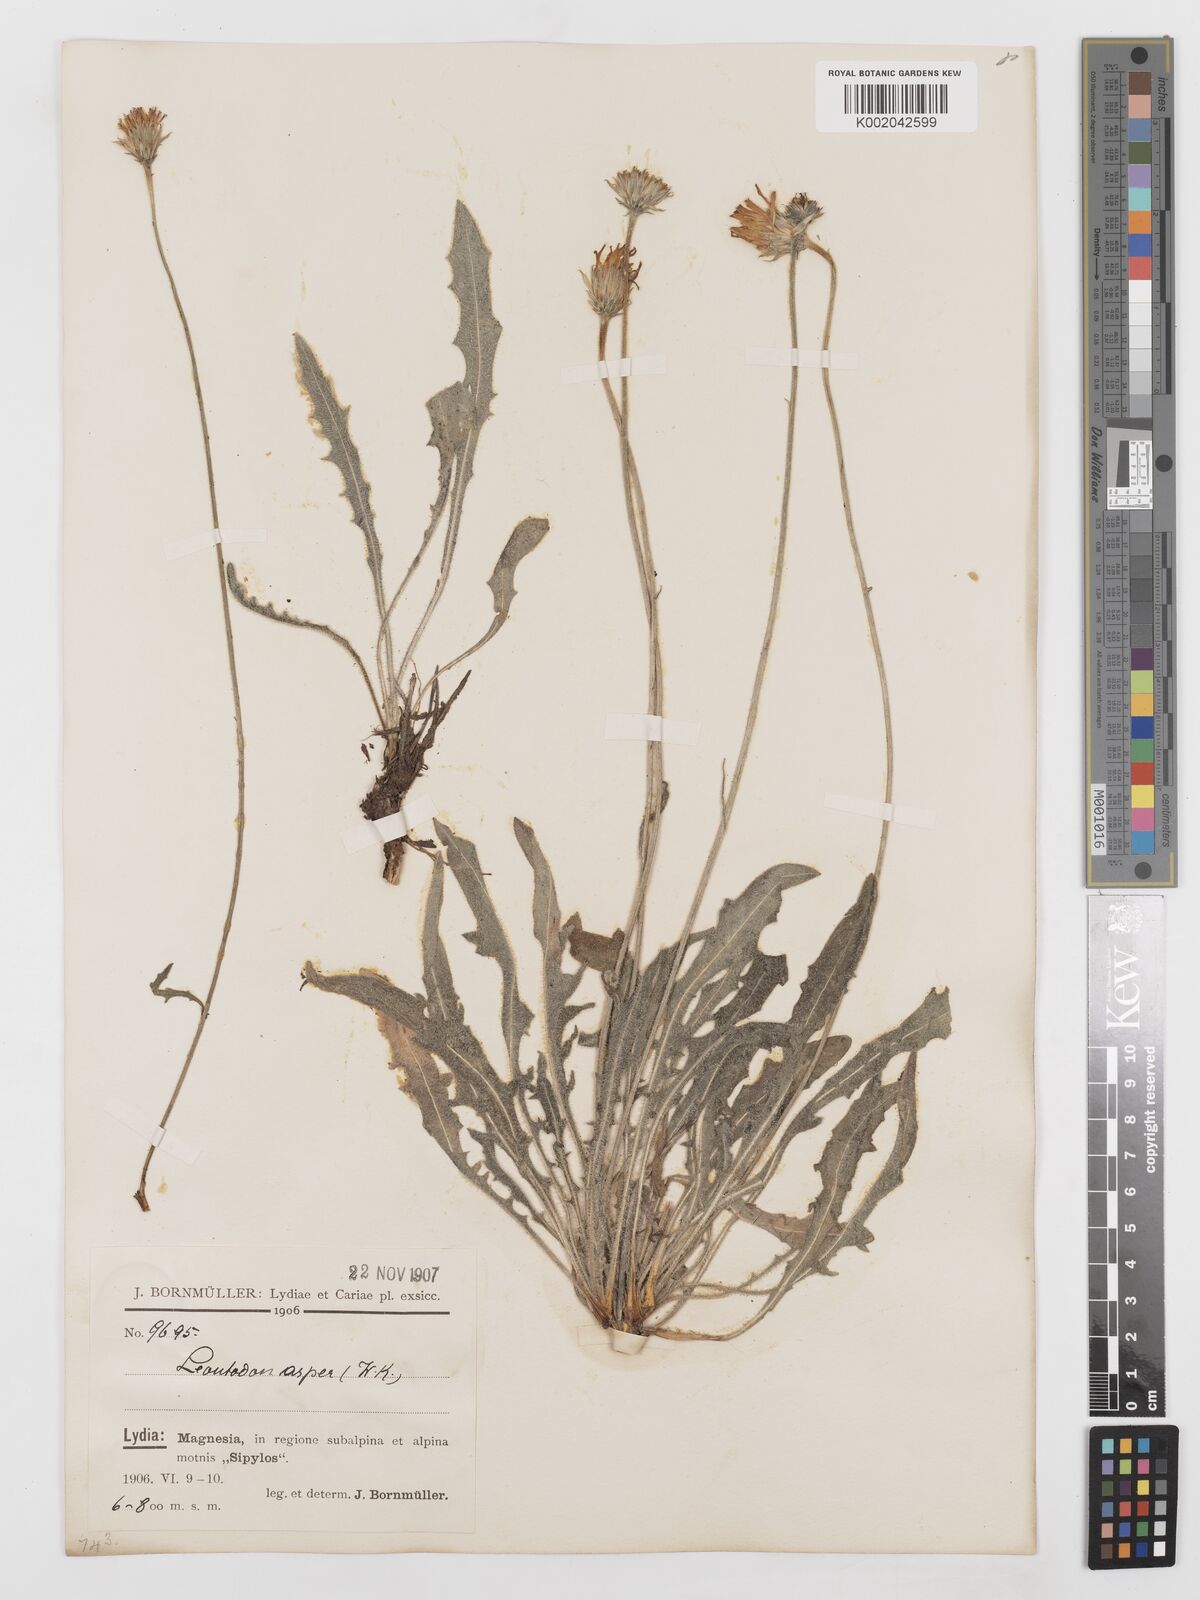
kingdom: Plantae
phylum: Tracheophyta
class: Magnoliopsida
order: Asterales
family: Asteraceae
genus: Leontodon
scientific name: Leontodon
